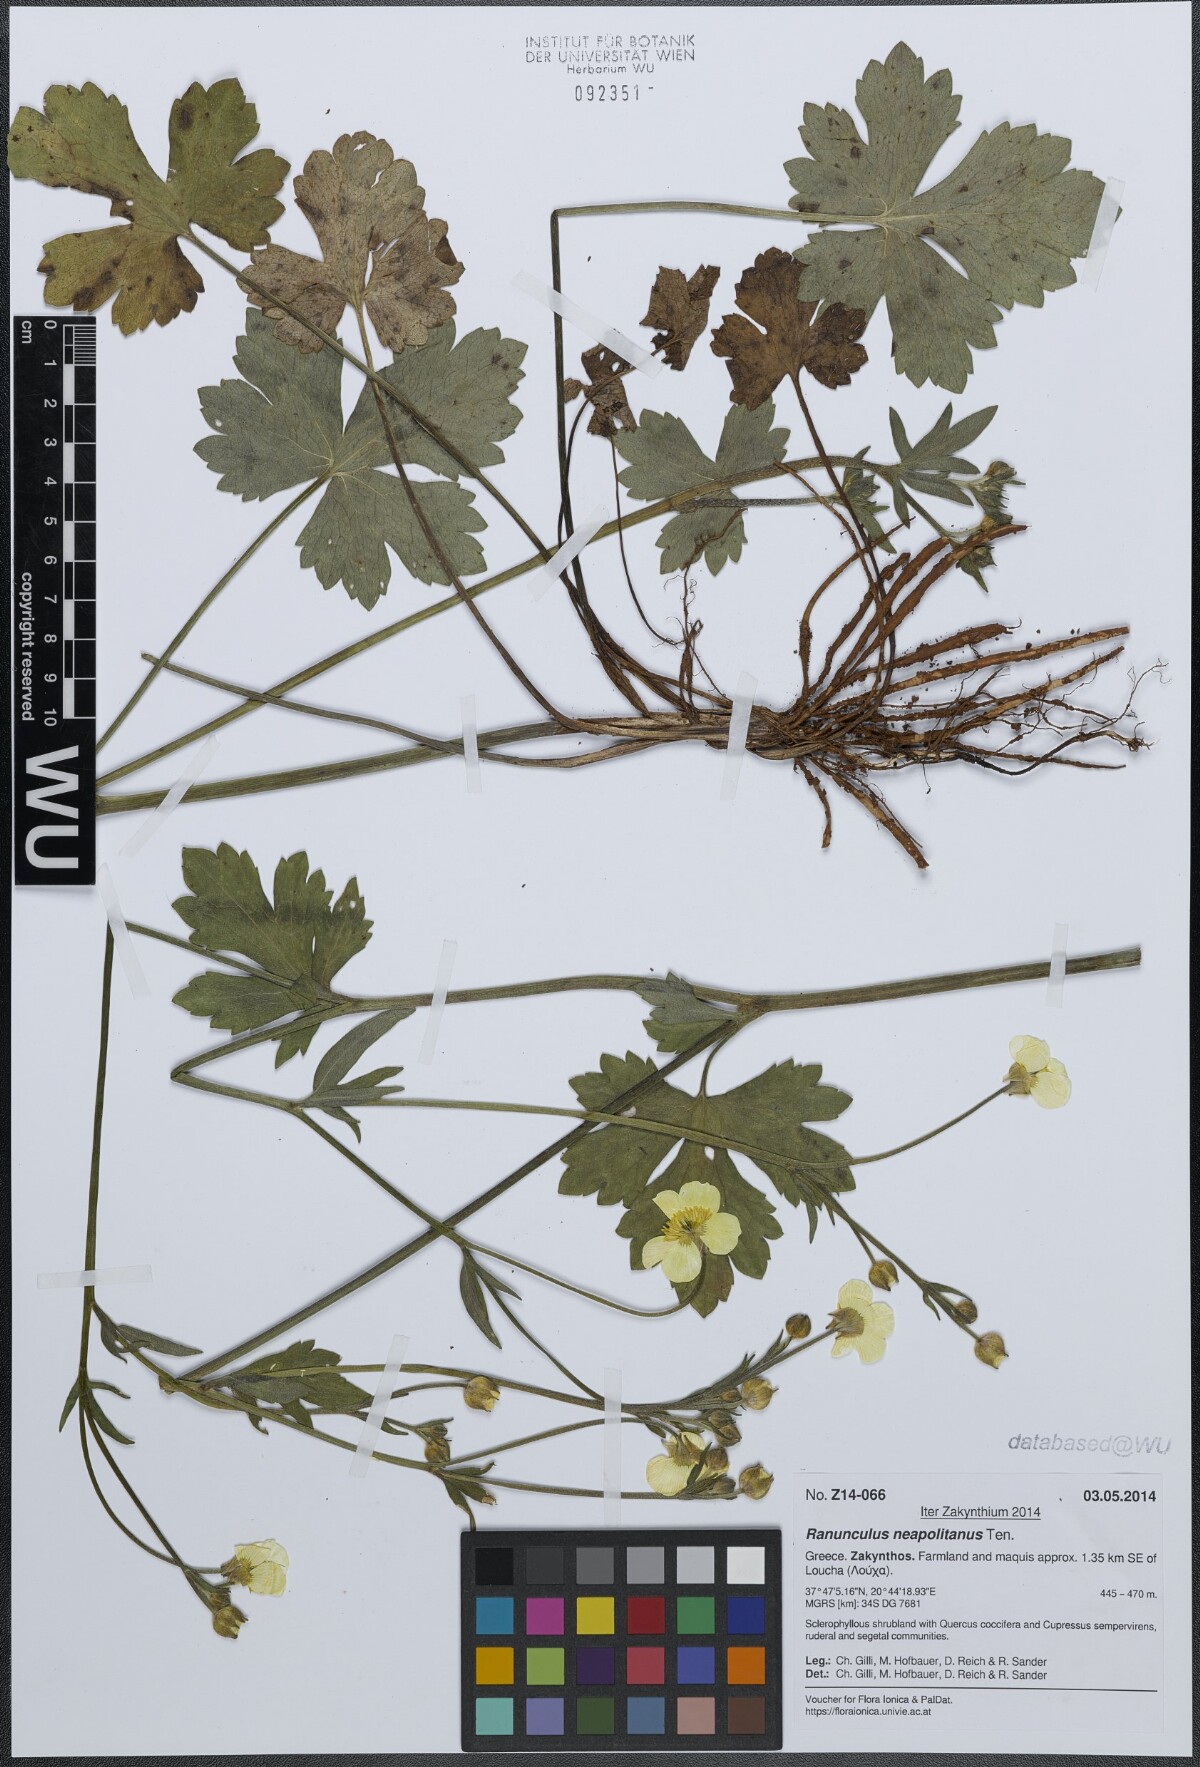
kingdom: Plantae
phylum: Tracheophyta
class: Magnoliopsida
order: Ranunculales
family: Ranunculaceae
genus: Ranunculus
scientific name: Ranunculus neapolitanus
